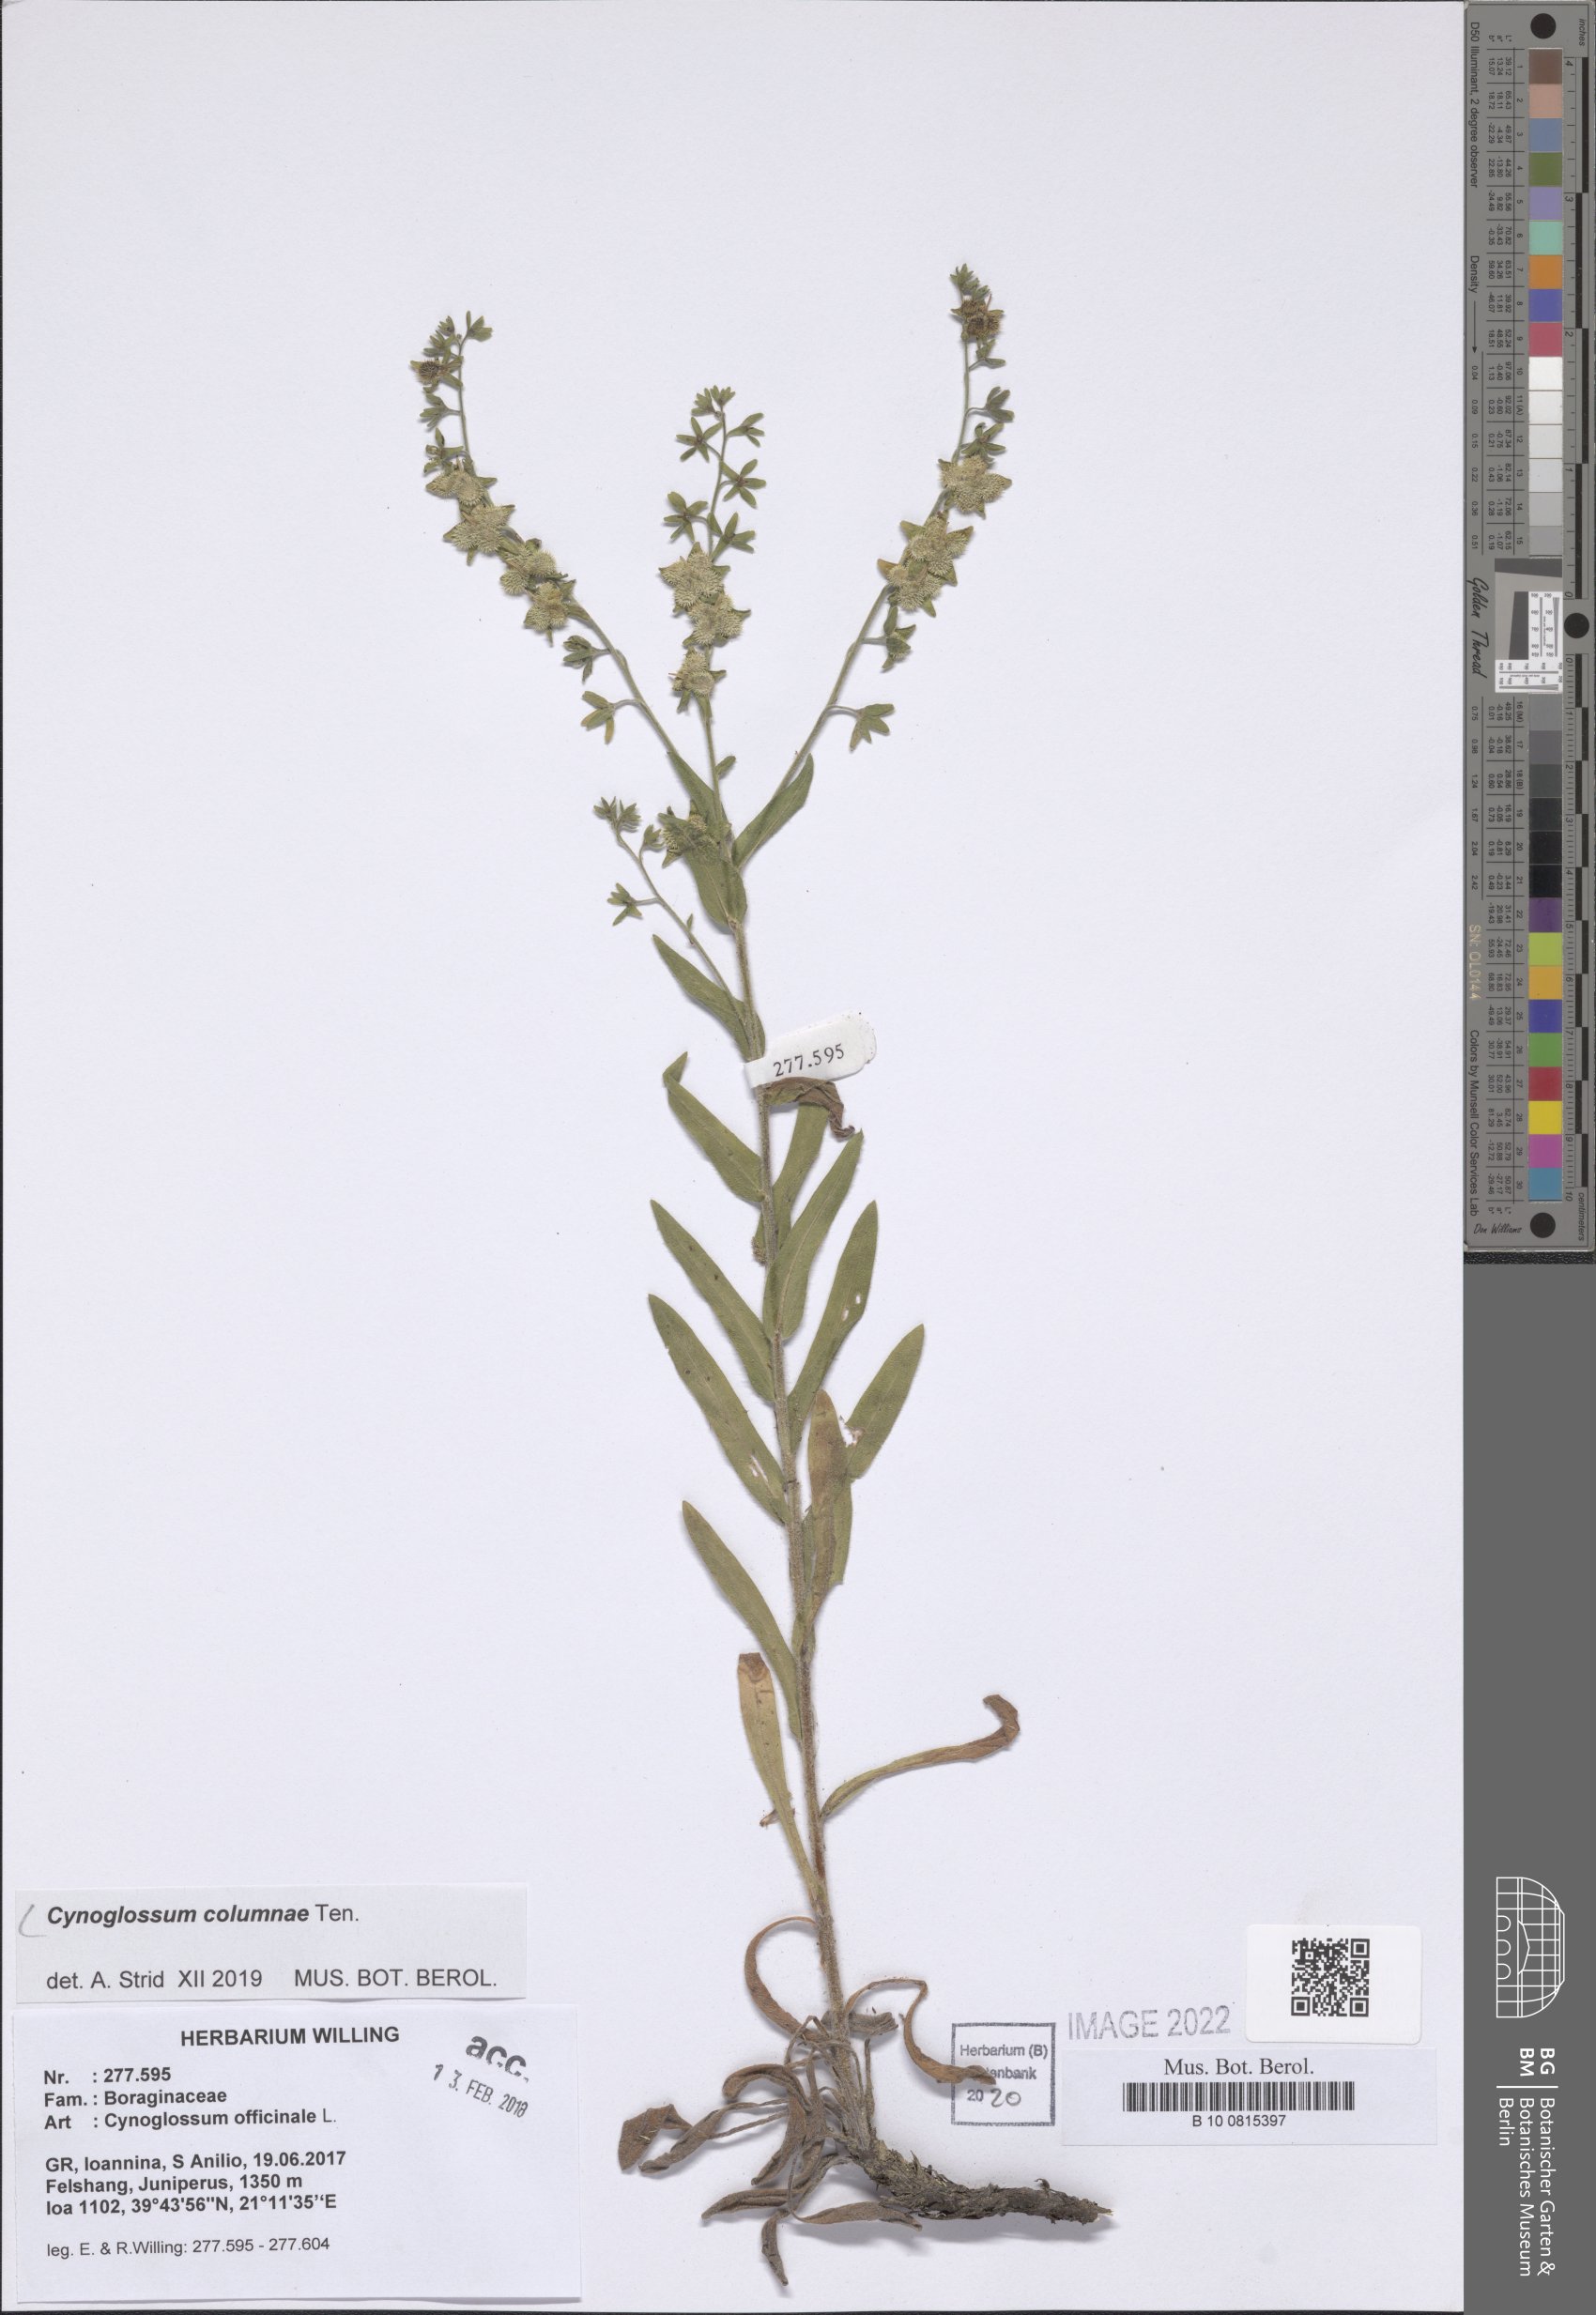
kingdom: Plantae
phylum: Tracheophyta
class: Magnoliopsida
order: Boraginales
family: Boraginaceae
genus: Rindera
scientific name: Rindera columnae
